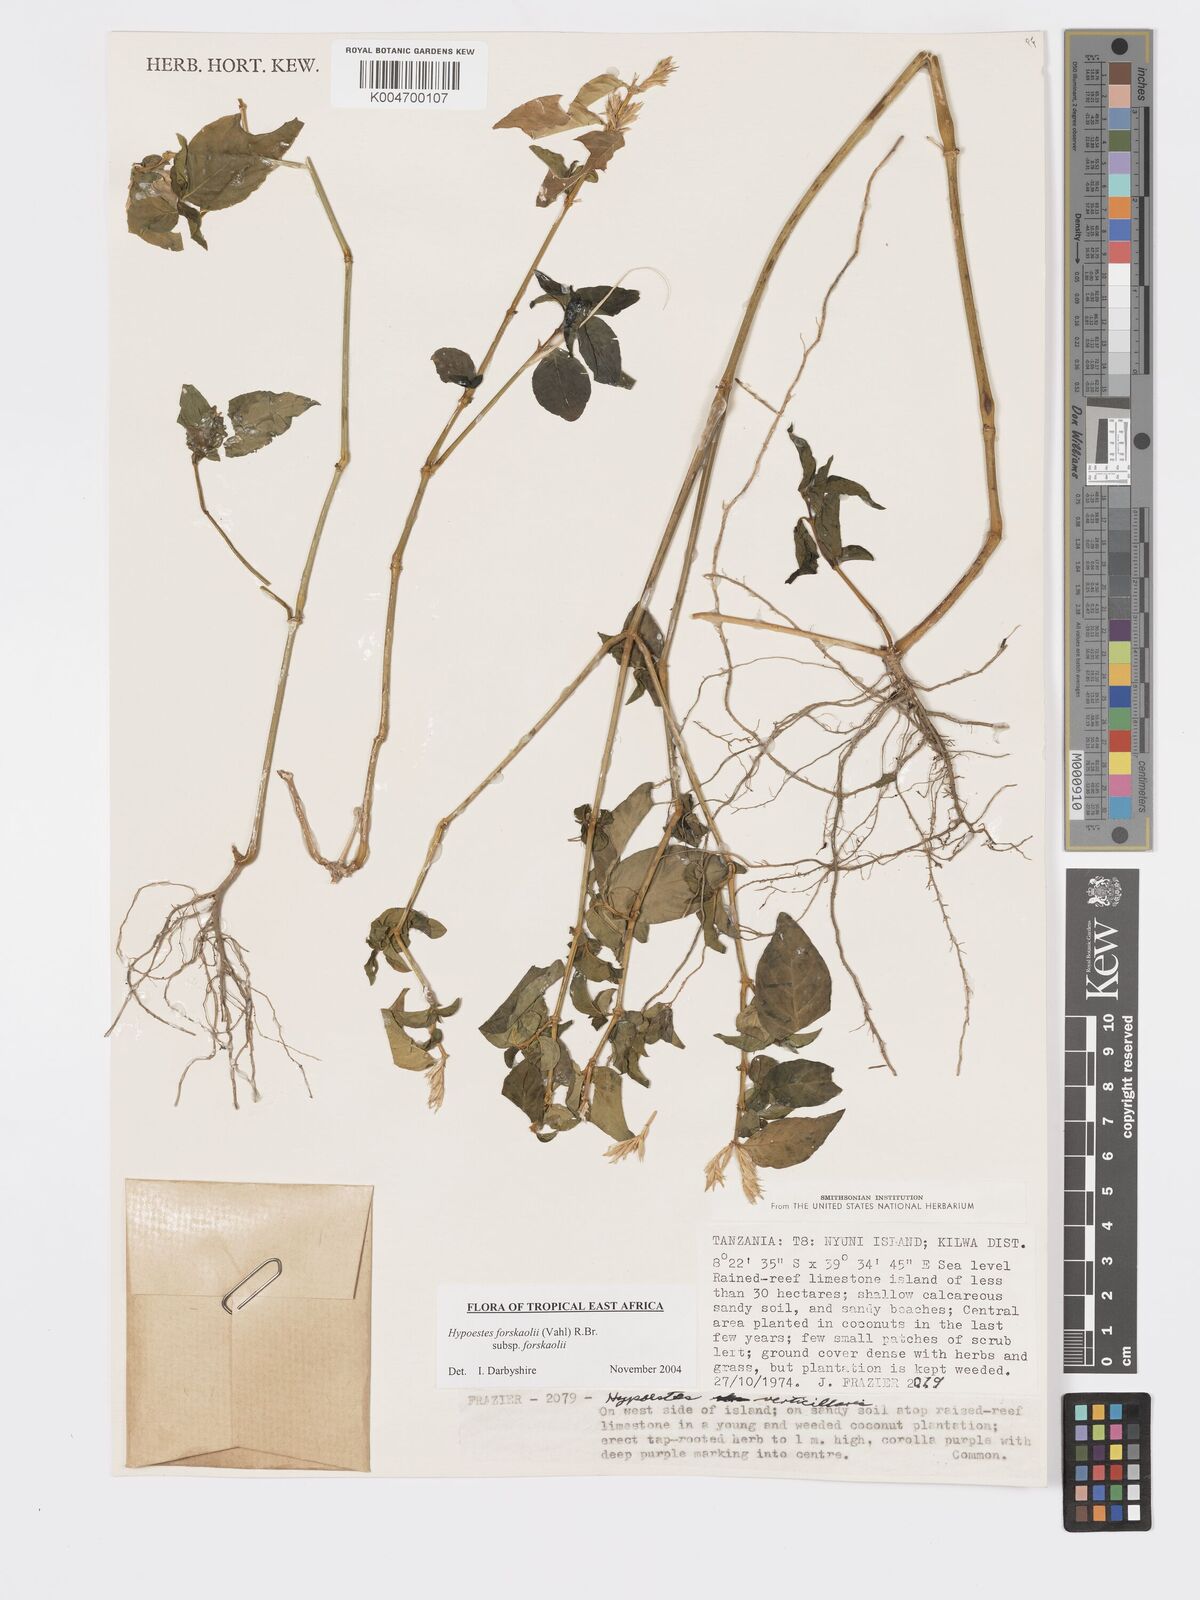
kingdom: Plantae
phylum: Tracheophyta
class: Magnoliopsida
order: Lamiales
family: Acanthaceae
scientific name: Acanthaceae
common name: Acanthaceae
